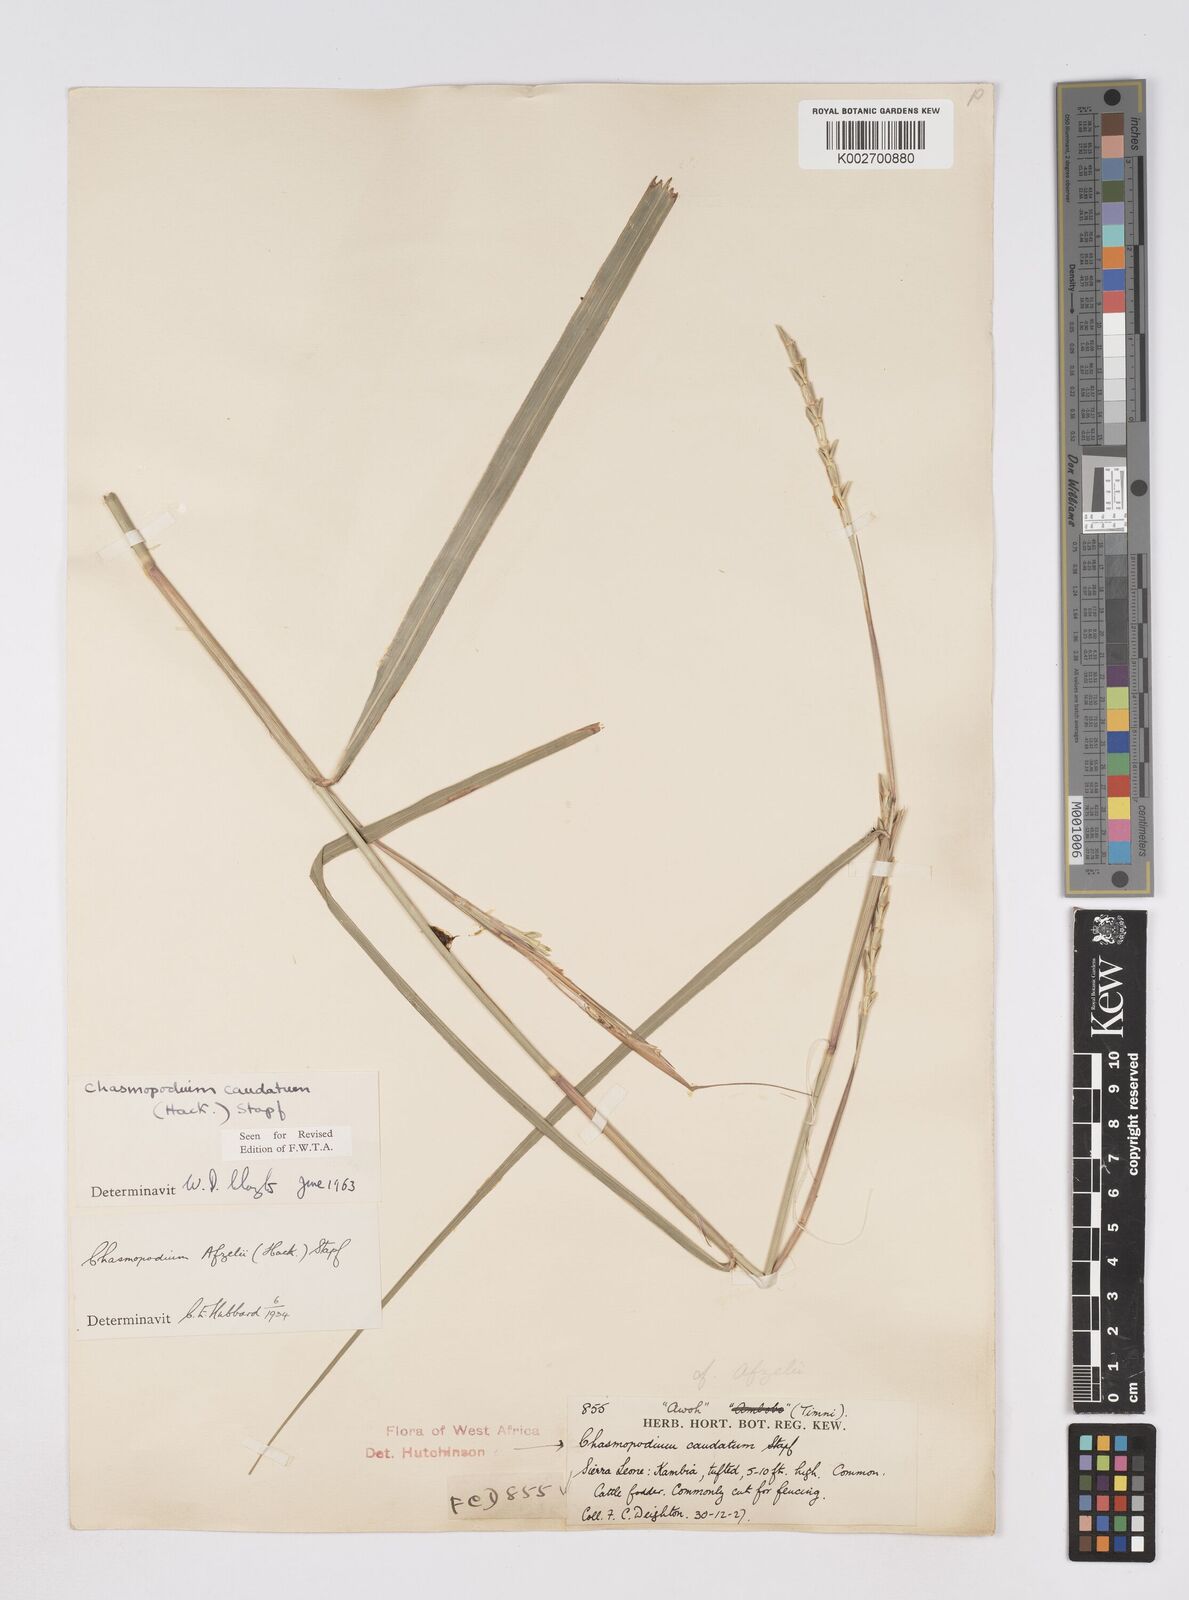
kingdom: Plantae
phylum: Tracheophyta
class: Liliopsida
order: Poales
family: Poaceae
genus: Chasmopodium
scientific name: Chasmopodium caudatum
